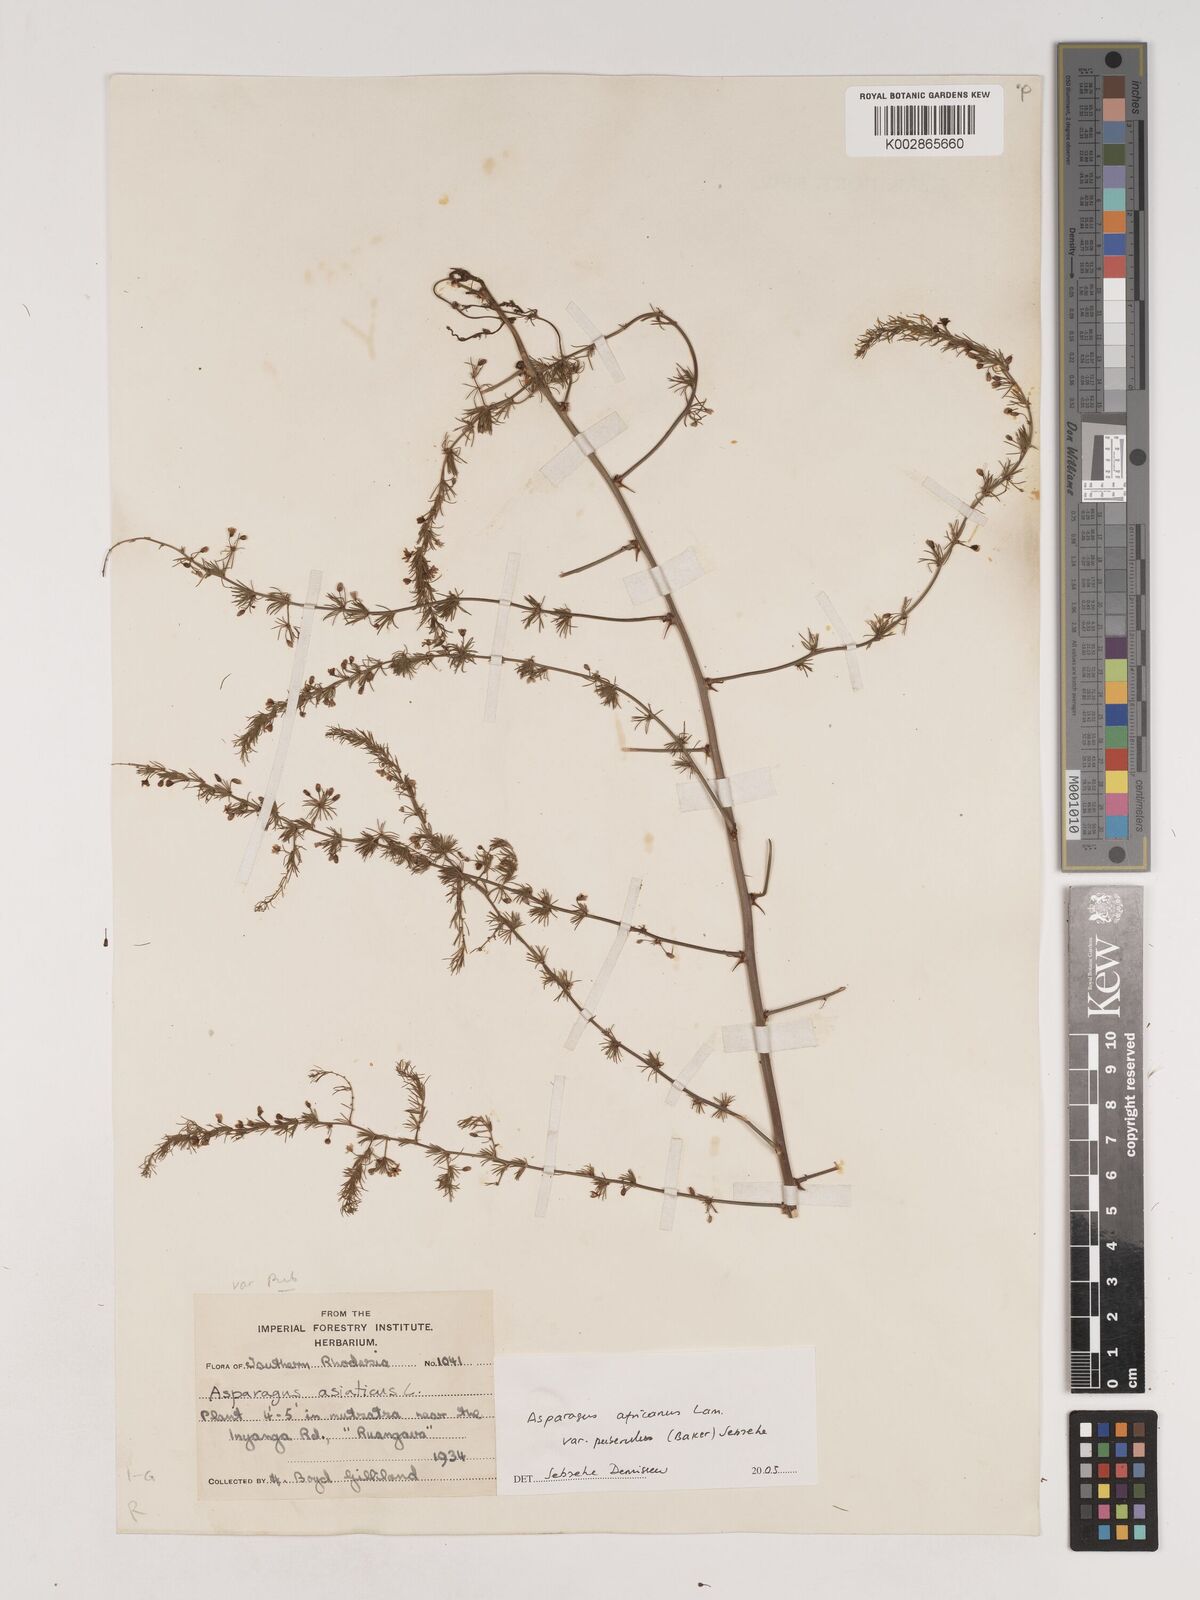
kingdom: Plantae
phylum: Tracheophyta
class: Liliopsida
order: Asparagales
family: Asparagaceae
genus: Asparagus
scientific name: Asparagus africanus
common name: Asparagus-fern
